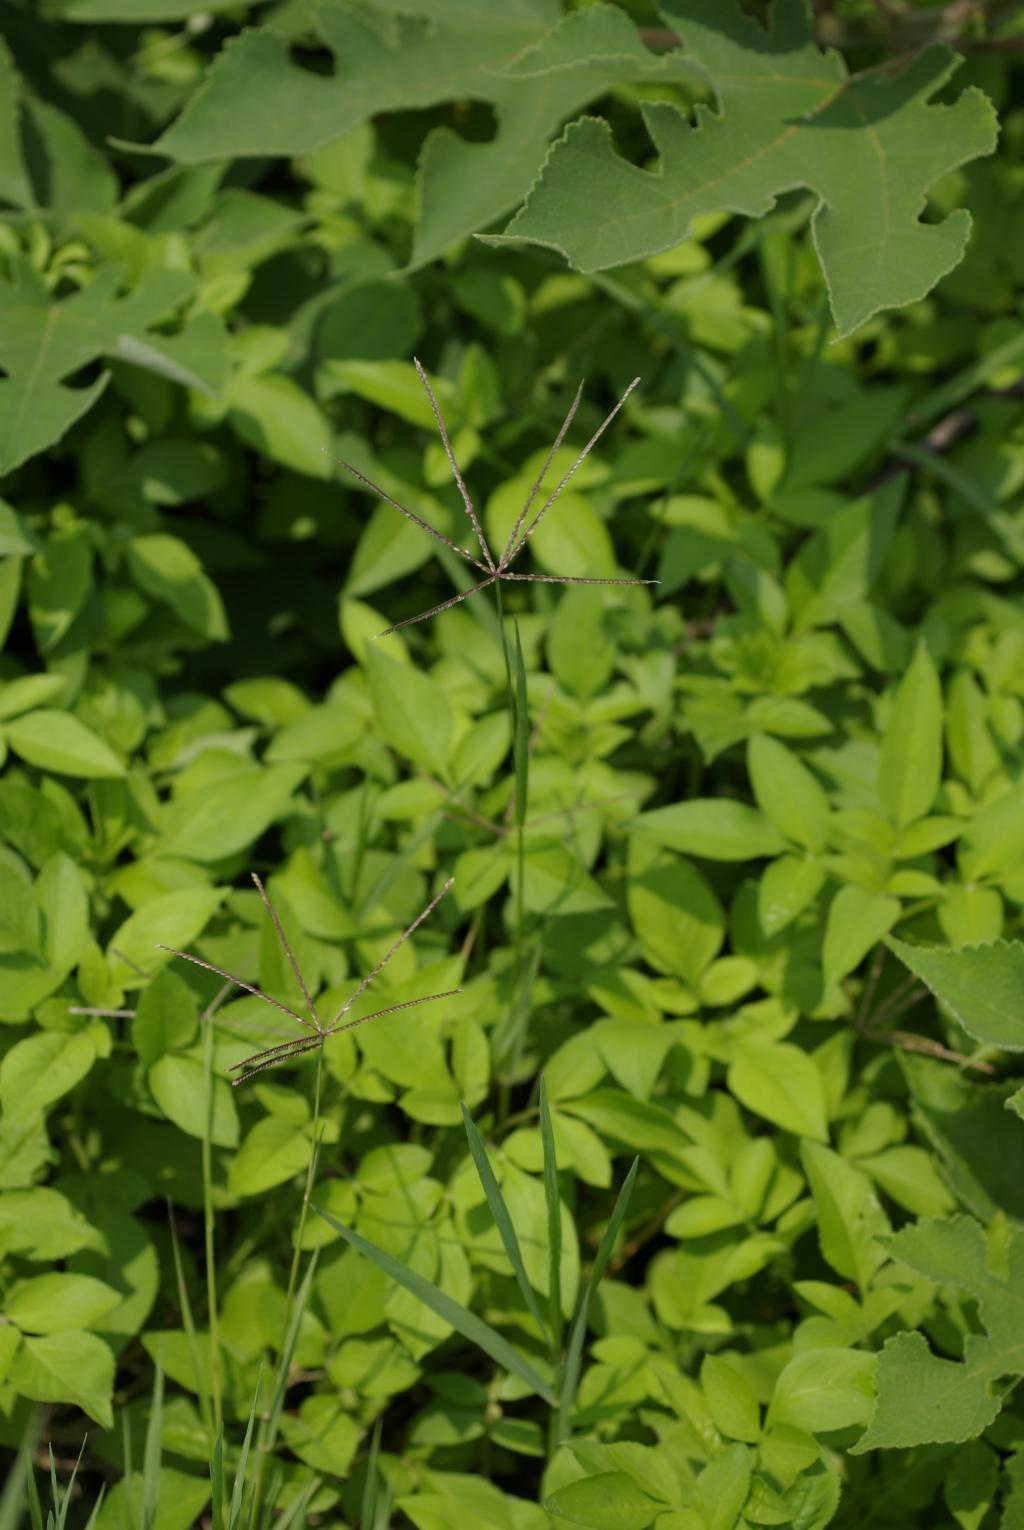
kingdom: Plantae
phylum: Tracheophyta
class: Liliopsida
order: Poales
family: Poaceae
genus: Cynodon
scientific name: Cynodon nlemfuensis
